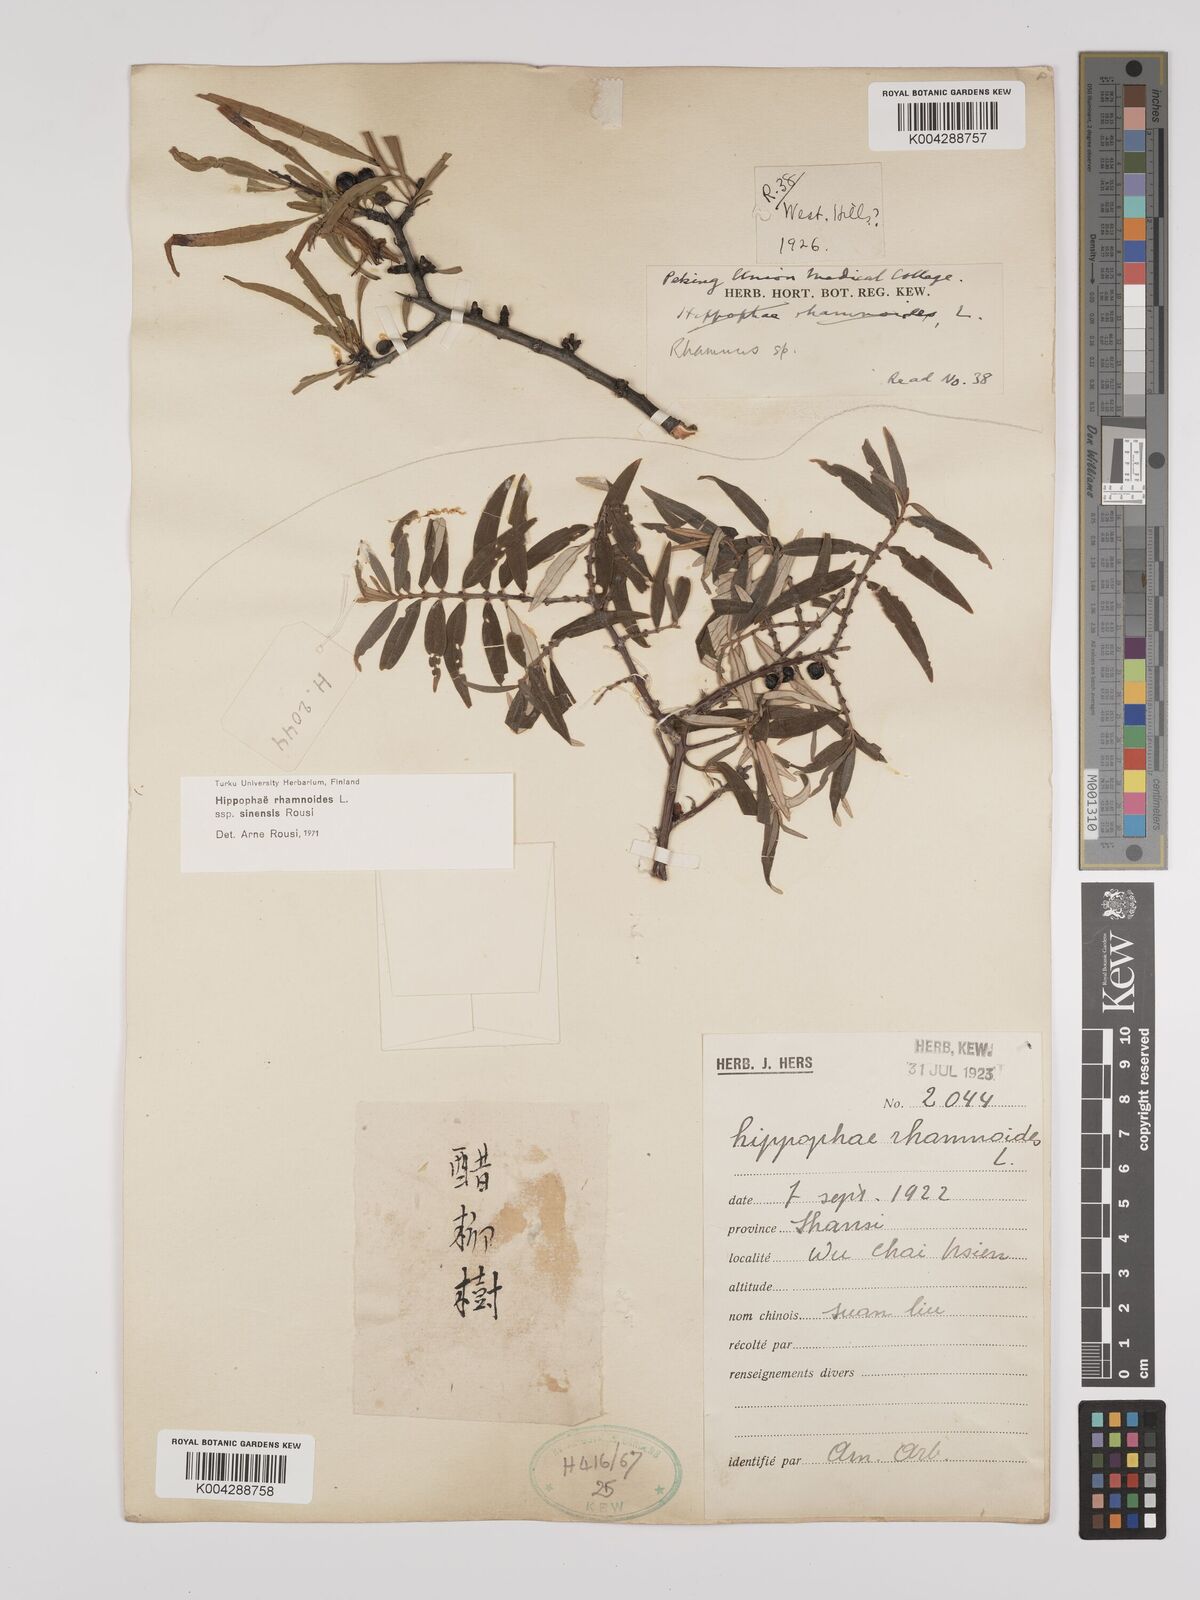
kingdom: Plantae
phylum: Tracheophyta
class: Magnoliopsida
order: Rosales
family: Elaeagnaceae
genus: Hippophae
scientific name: Hippophae rhamnoides
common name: Sea-buckthorn
